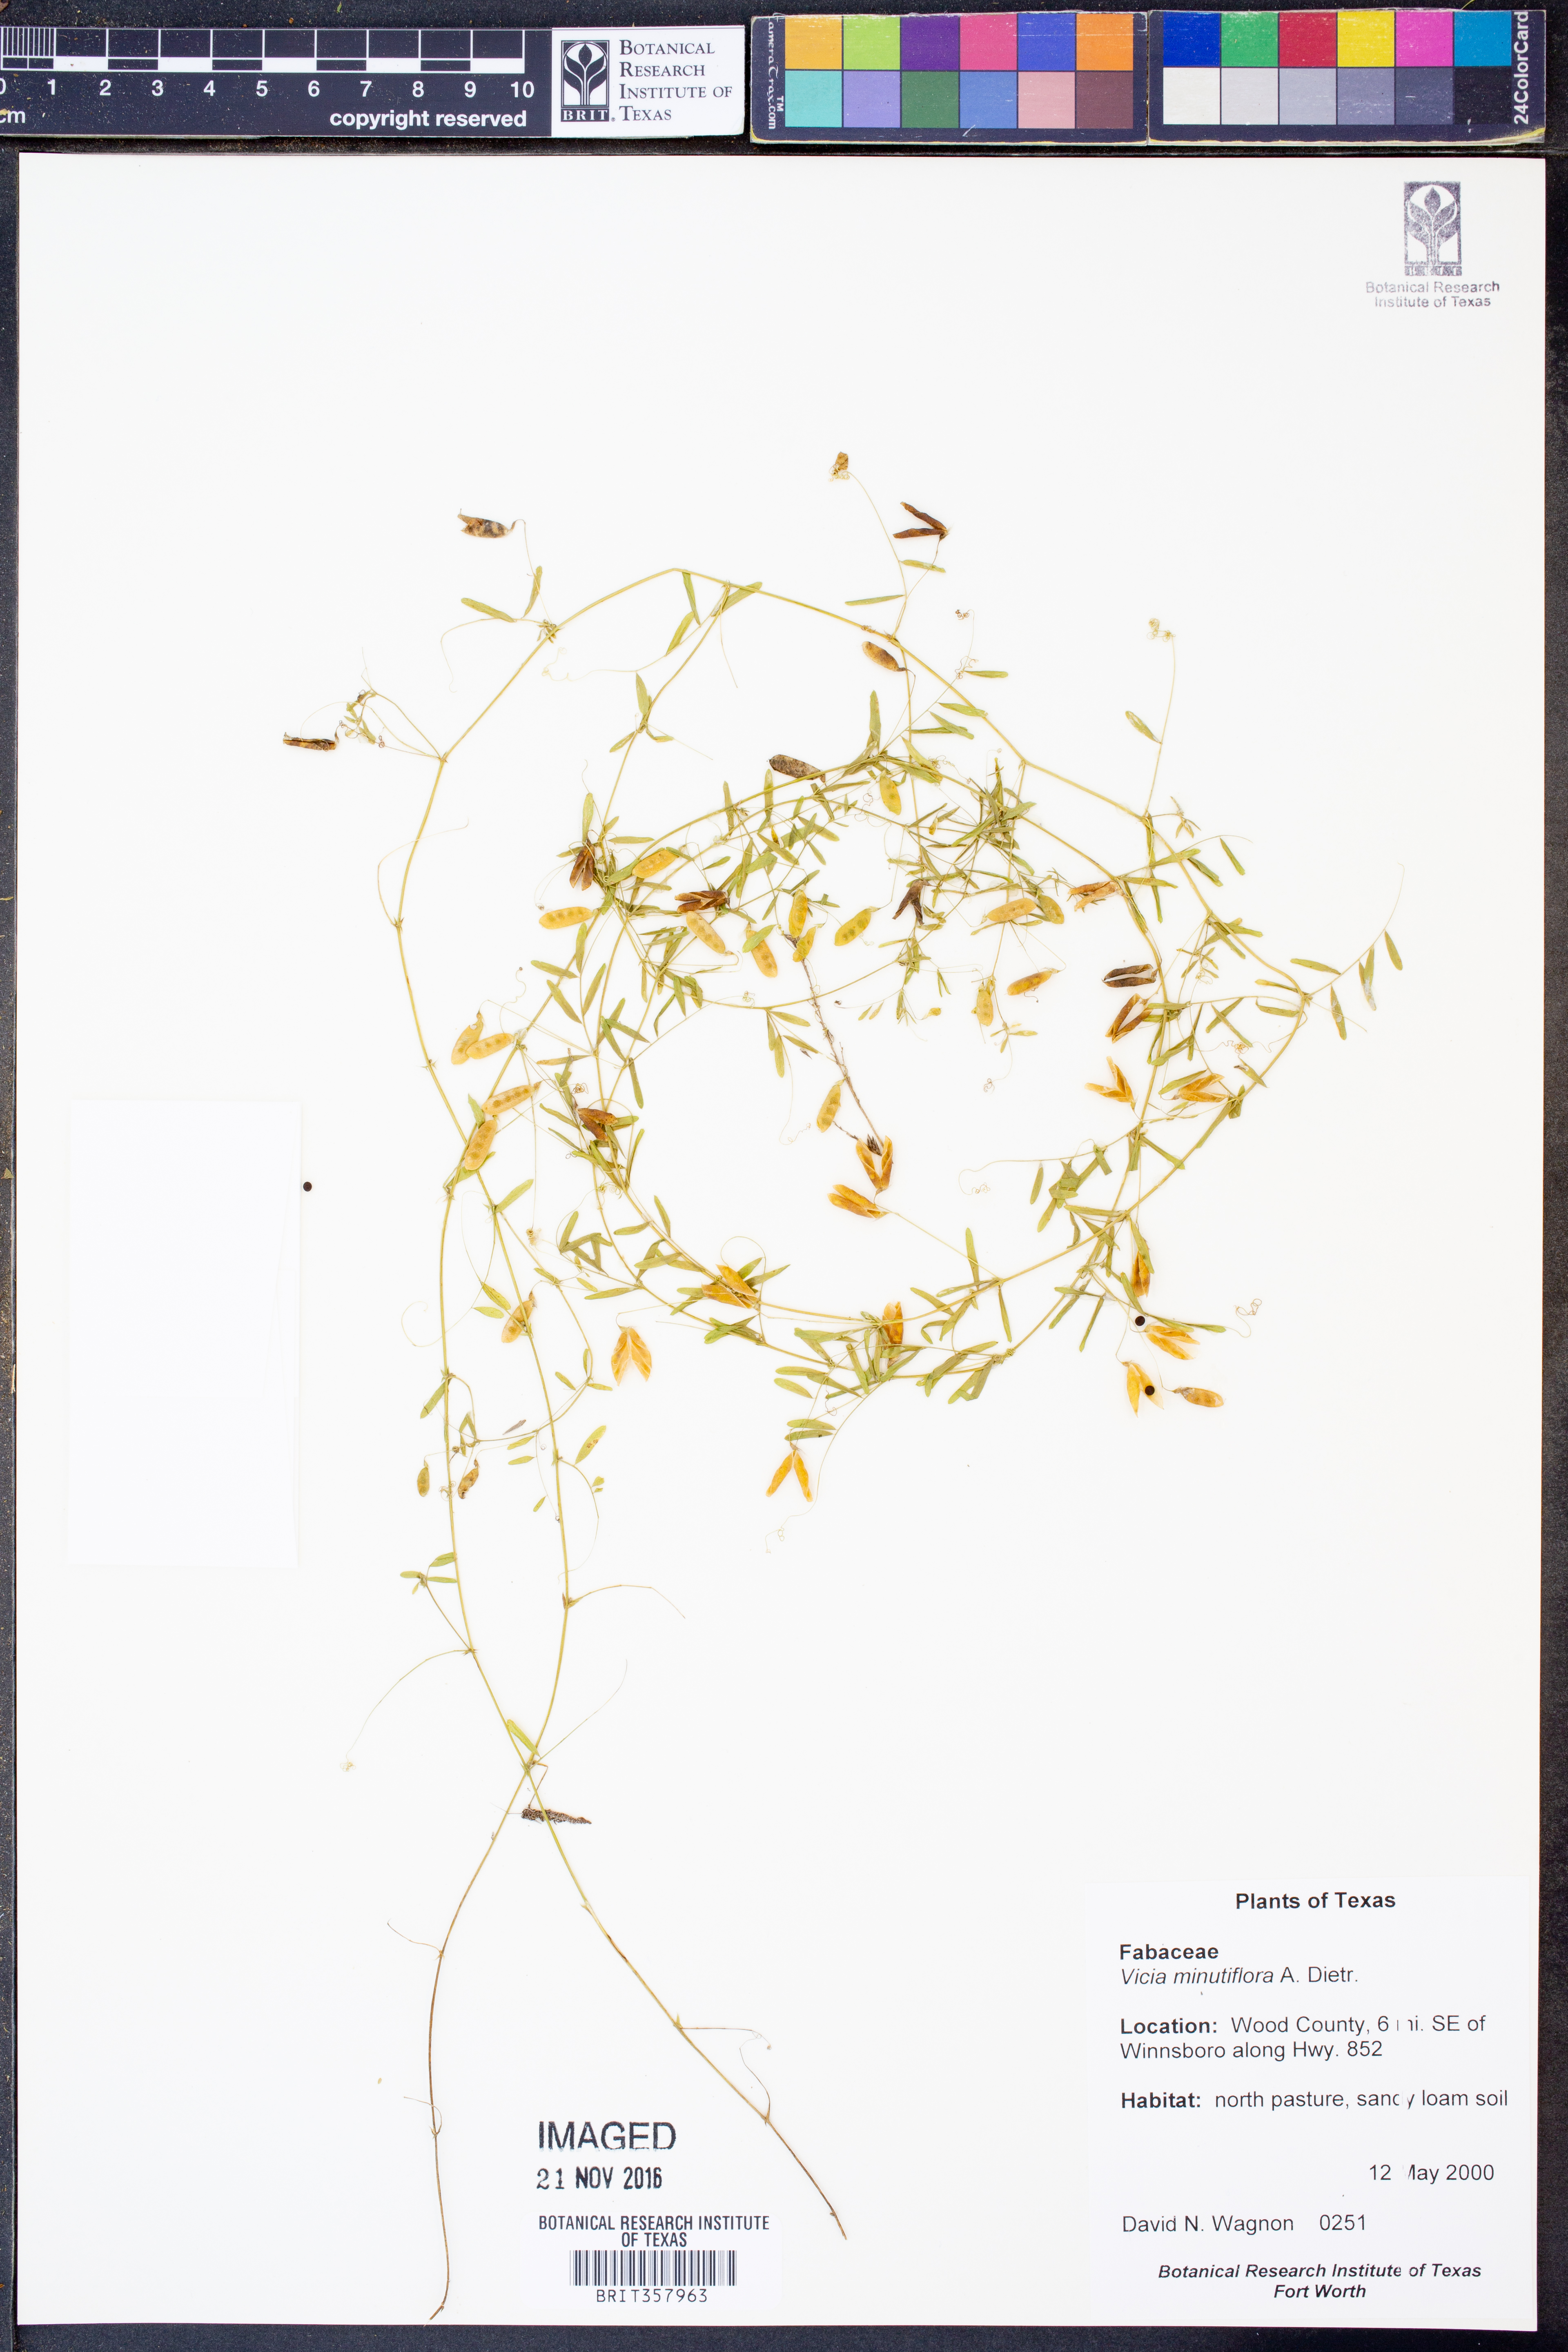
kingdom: Plantae
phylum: Tracheophyta
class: Magnoliopsida
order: Fabales
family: Fabaceae
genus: Vicia
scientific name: Vicia minutiflora
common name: Pygmy-flower vetch
